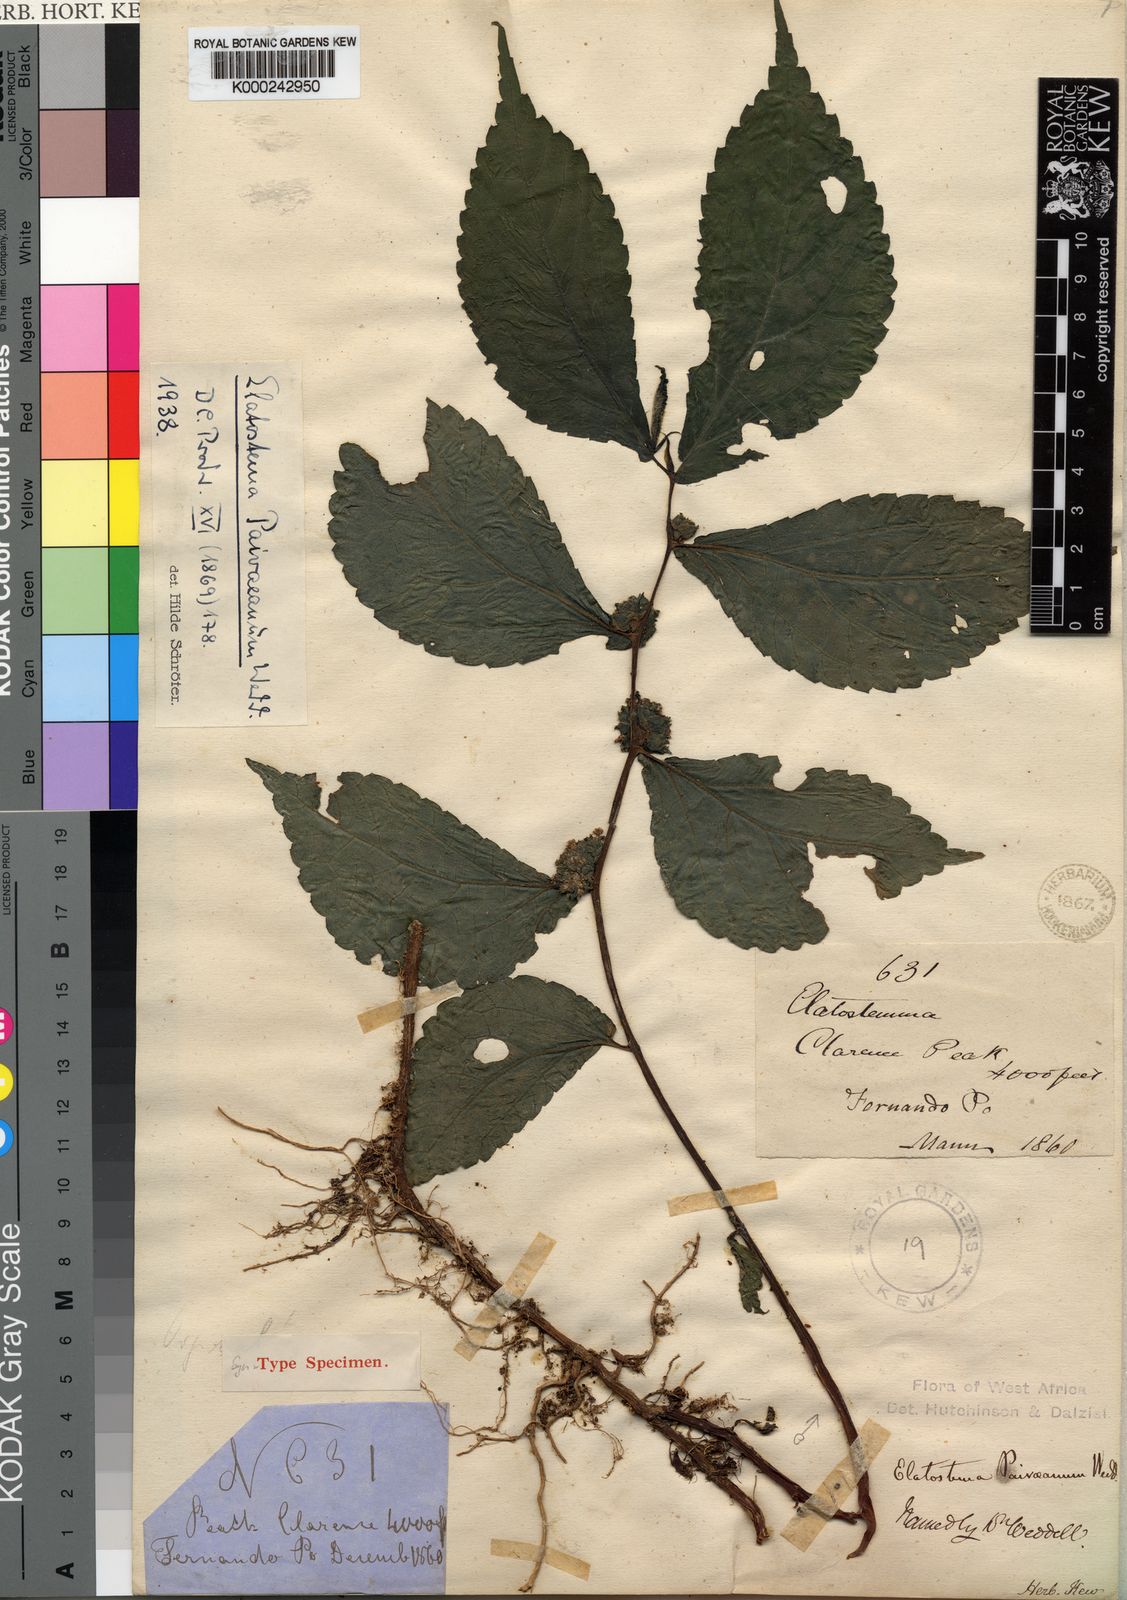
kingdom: Plantae
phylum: Tracheophyta
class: Magnoliopsida
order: Rosales
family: Urticaceae
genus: Elatostema
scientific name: Elatostema paivaeanum
